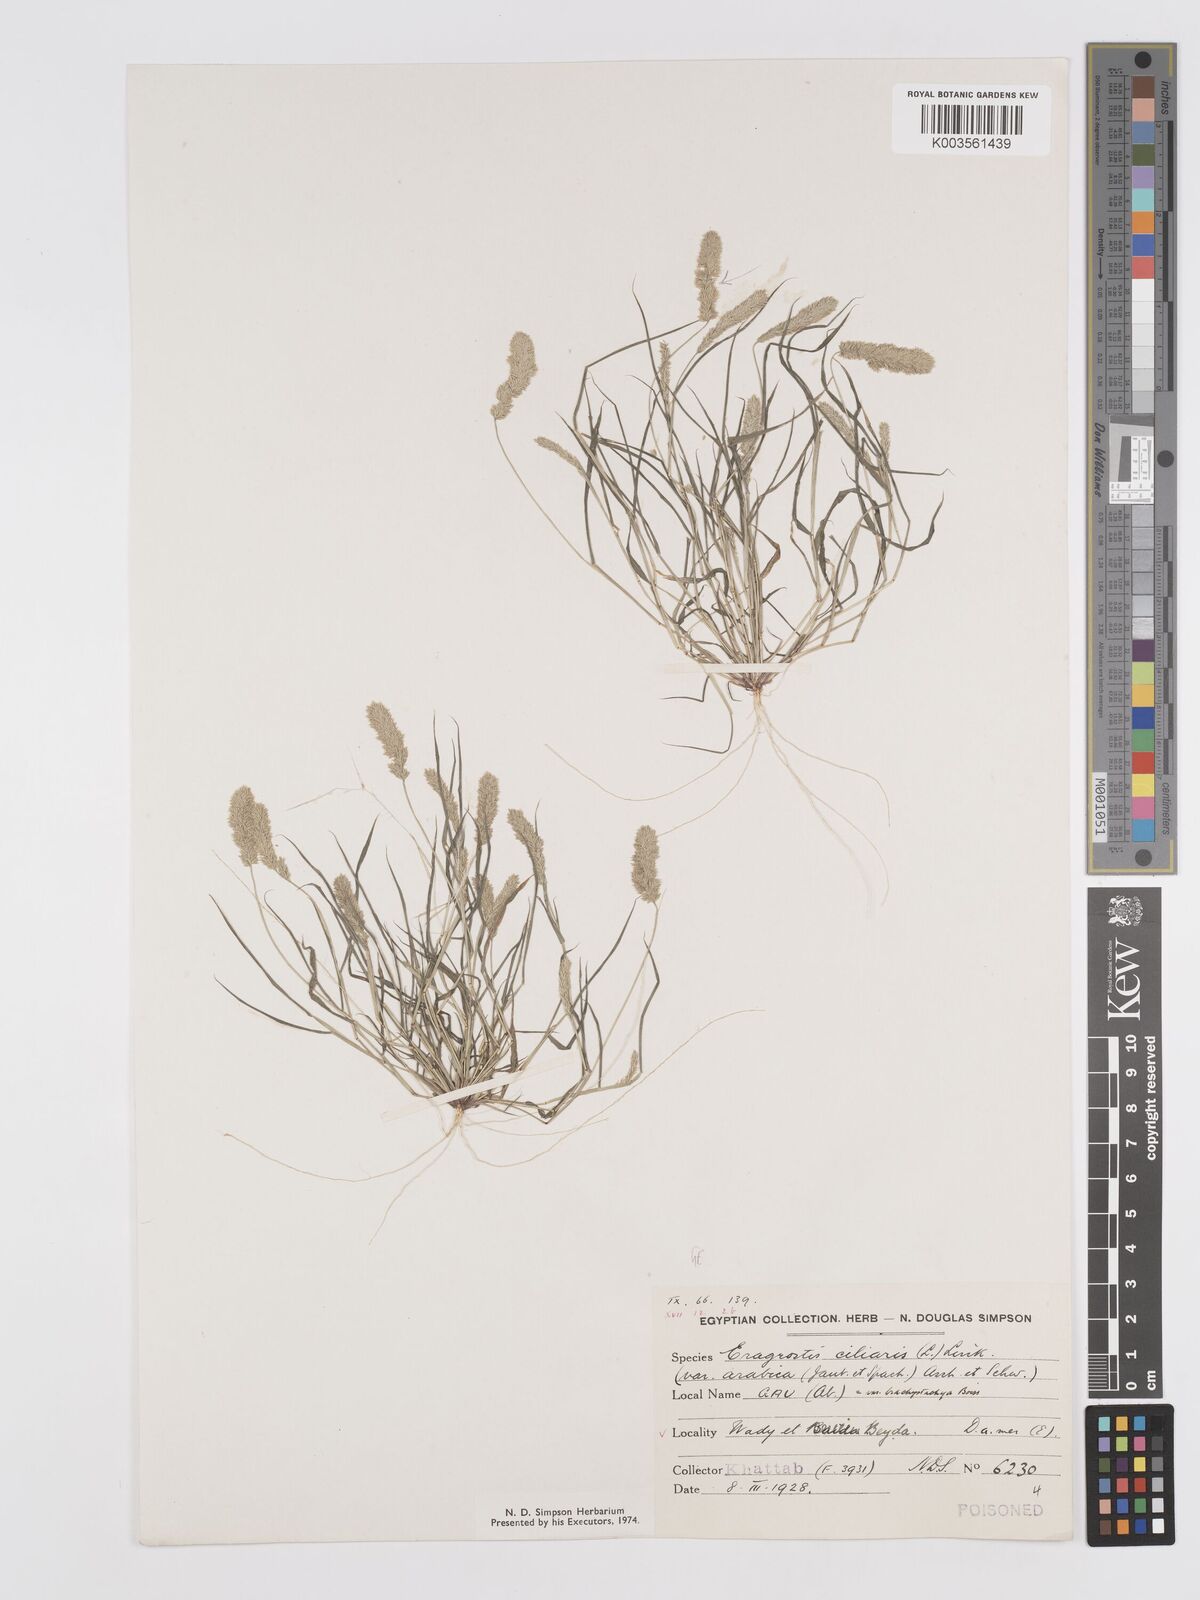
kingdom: Plantae
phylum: Tracheophyta
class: Liliopsida
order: Poales
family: Poaceae
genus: Eragrostis
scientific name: Eragrostis ciliaris
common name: Gophertail lovegrass
